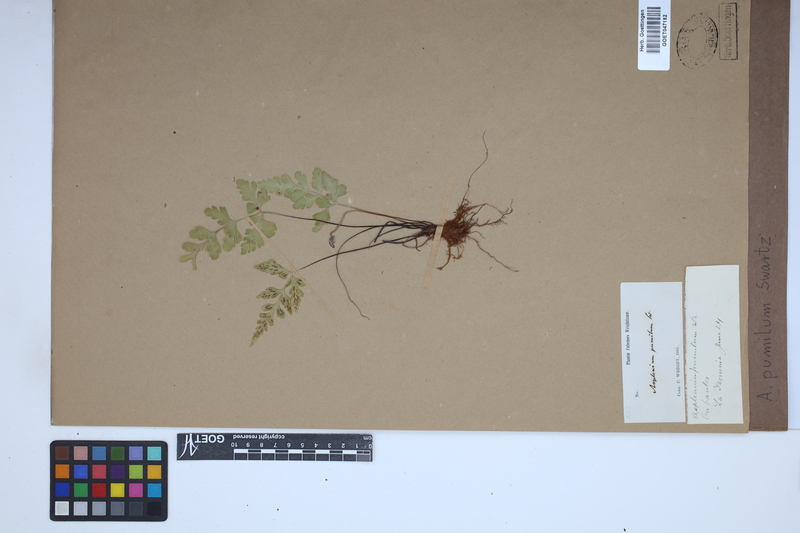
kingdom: Plantae
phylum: Tracheophyta
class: Polypodiopsida
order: Polypodiales
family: Aspleniaceae
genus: Asplenium
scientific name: Asplenium pumilum
